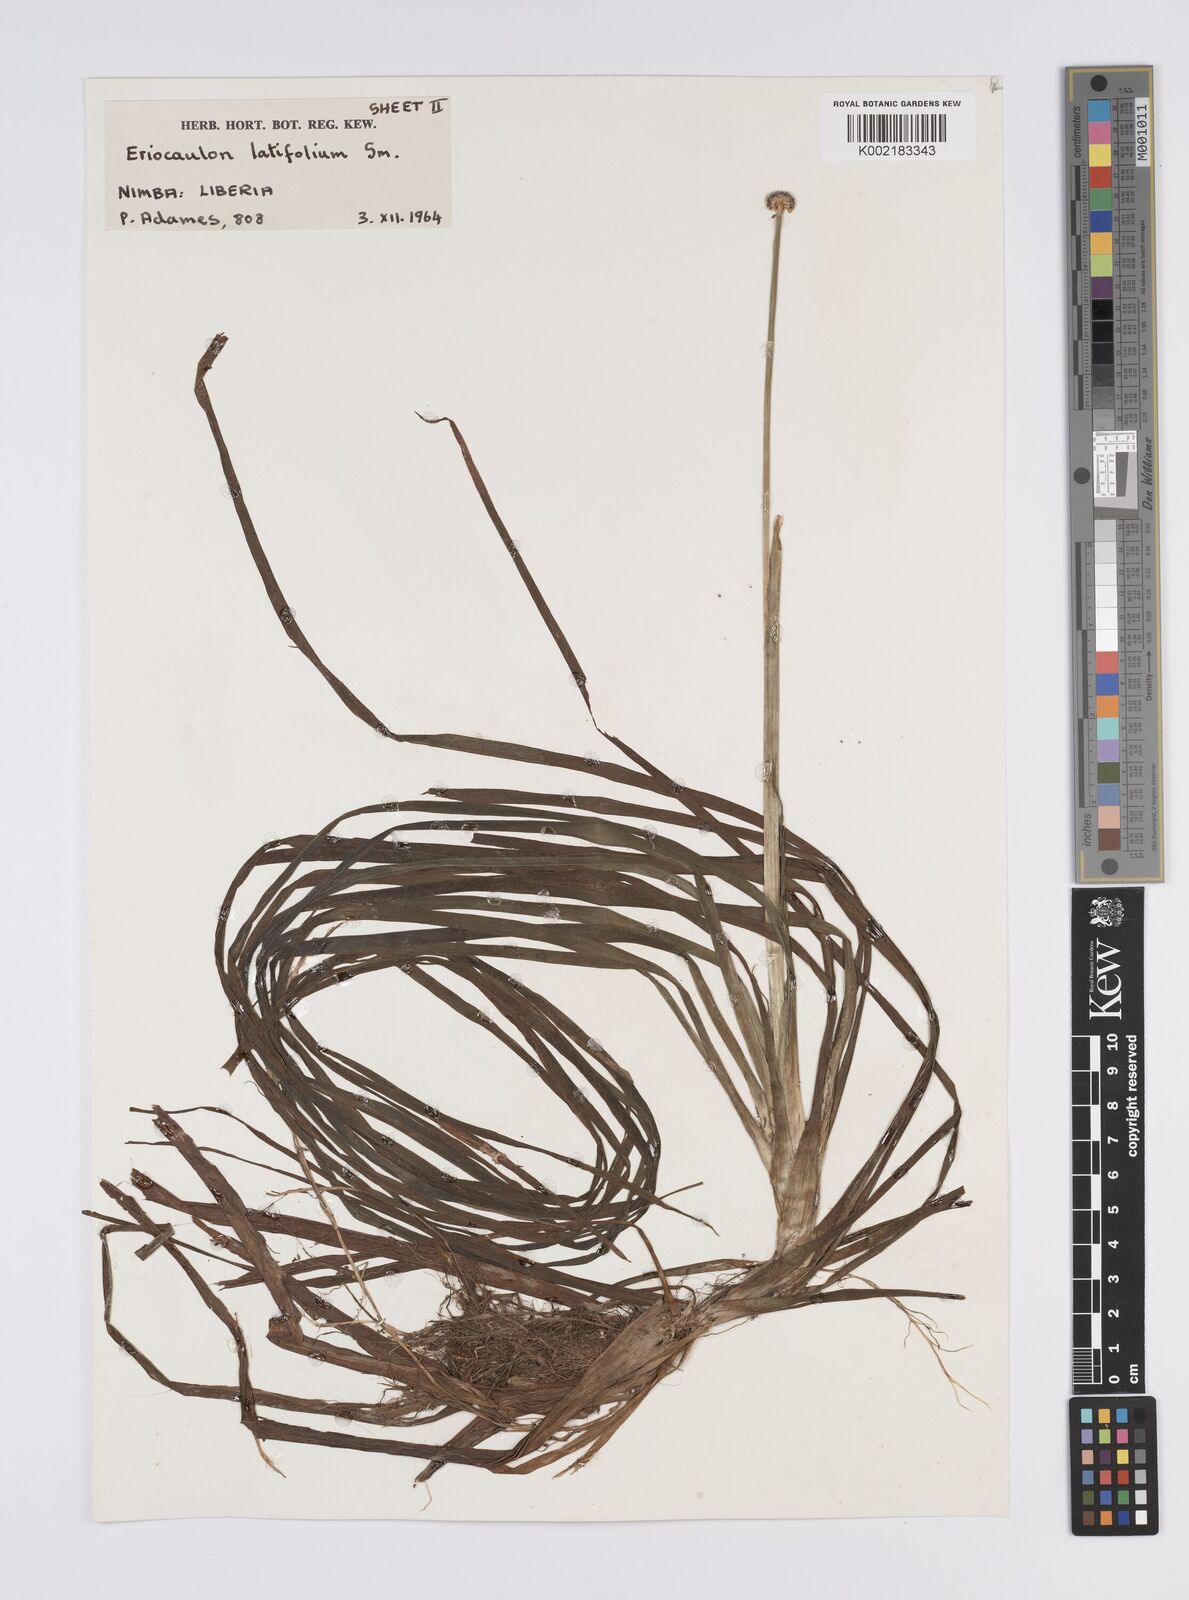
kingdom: Plantae
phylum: Tracheophyta
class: Liliopsida
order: Poales
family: Eriocaulaceae
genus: Eriocaulon
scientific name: Eriocaulon latifolium
